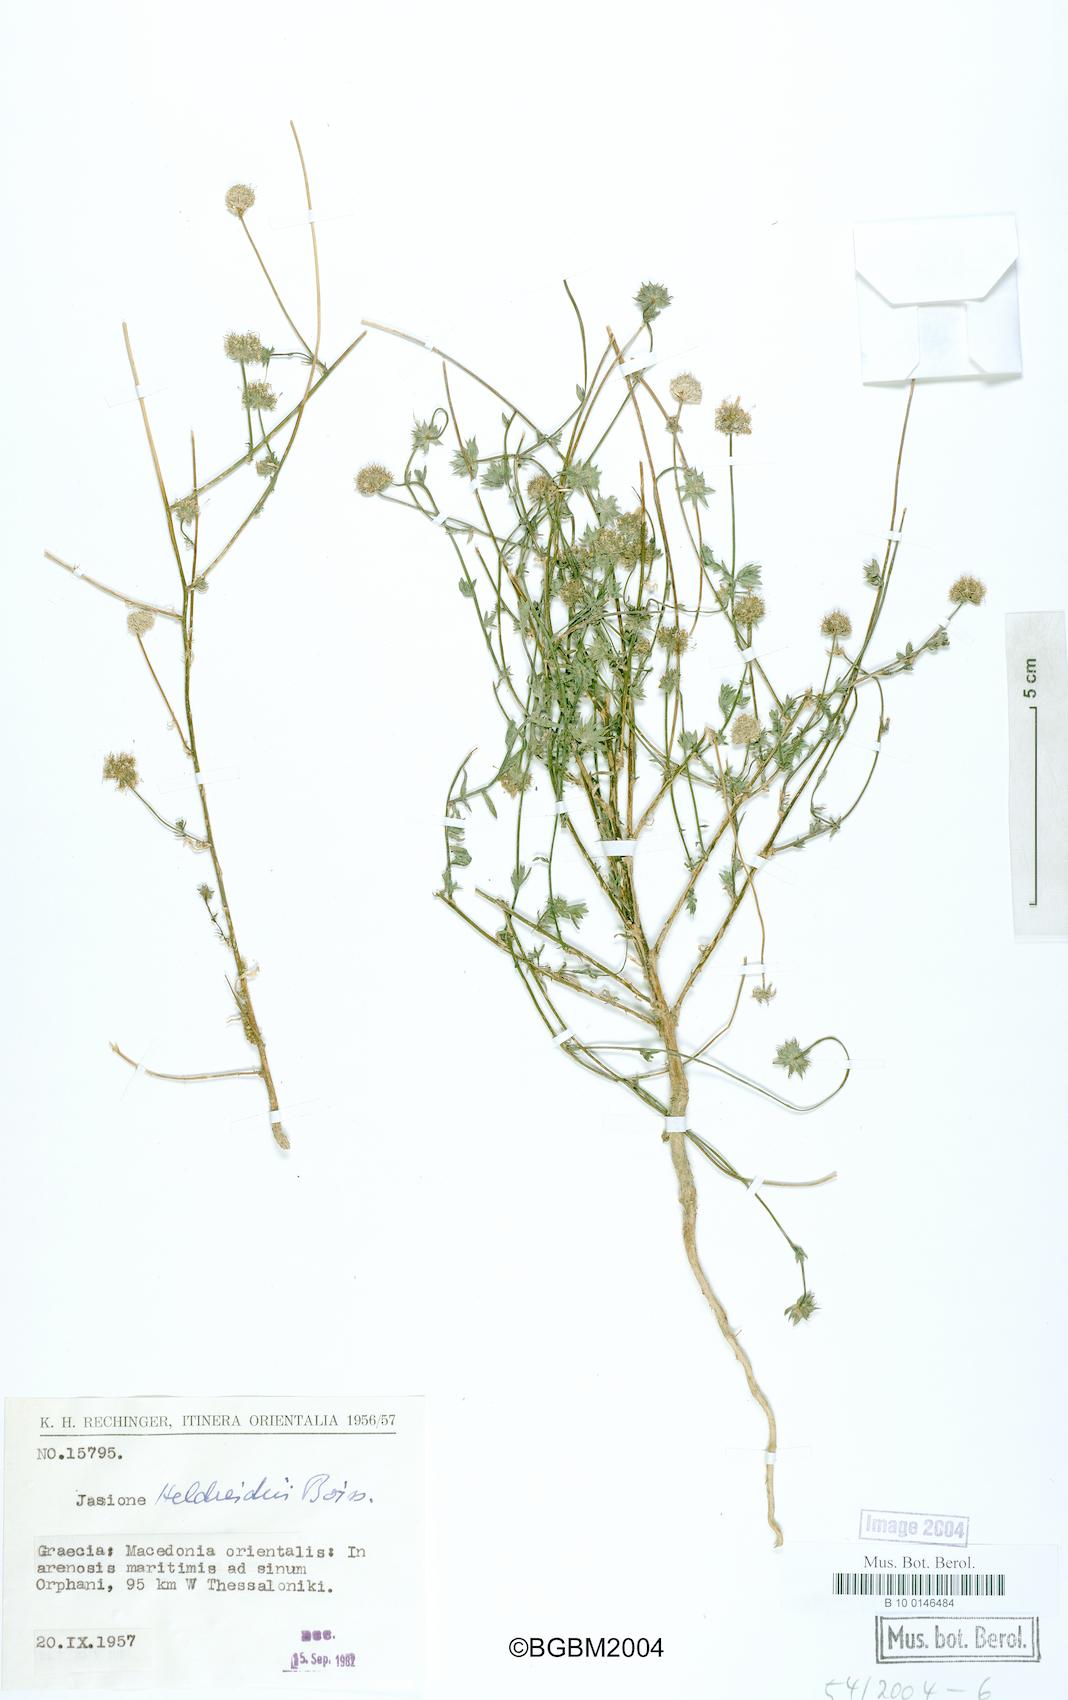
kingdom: Plantae
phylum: Tracheophyta
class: Magnoliopsida
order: Asterales
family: Campanulaceae
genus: Jasione
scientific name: Jasione heldreichii
